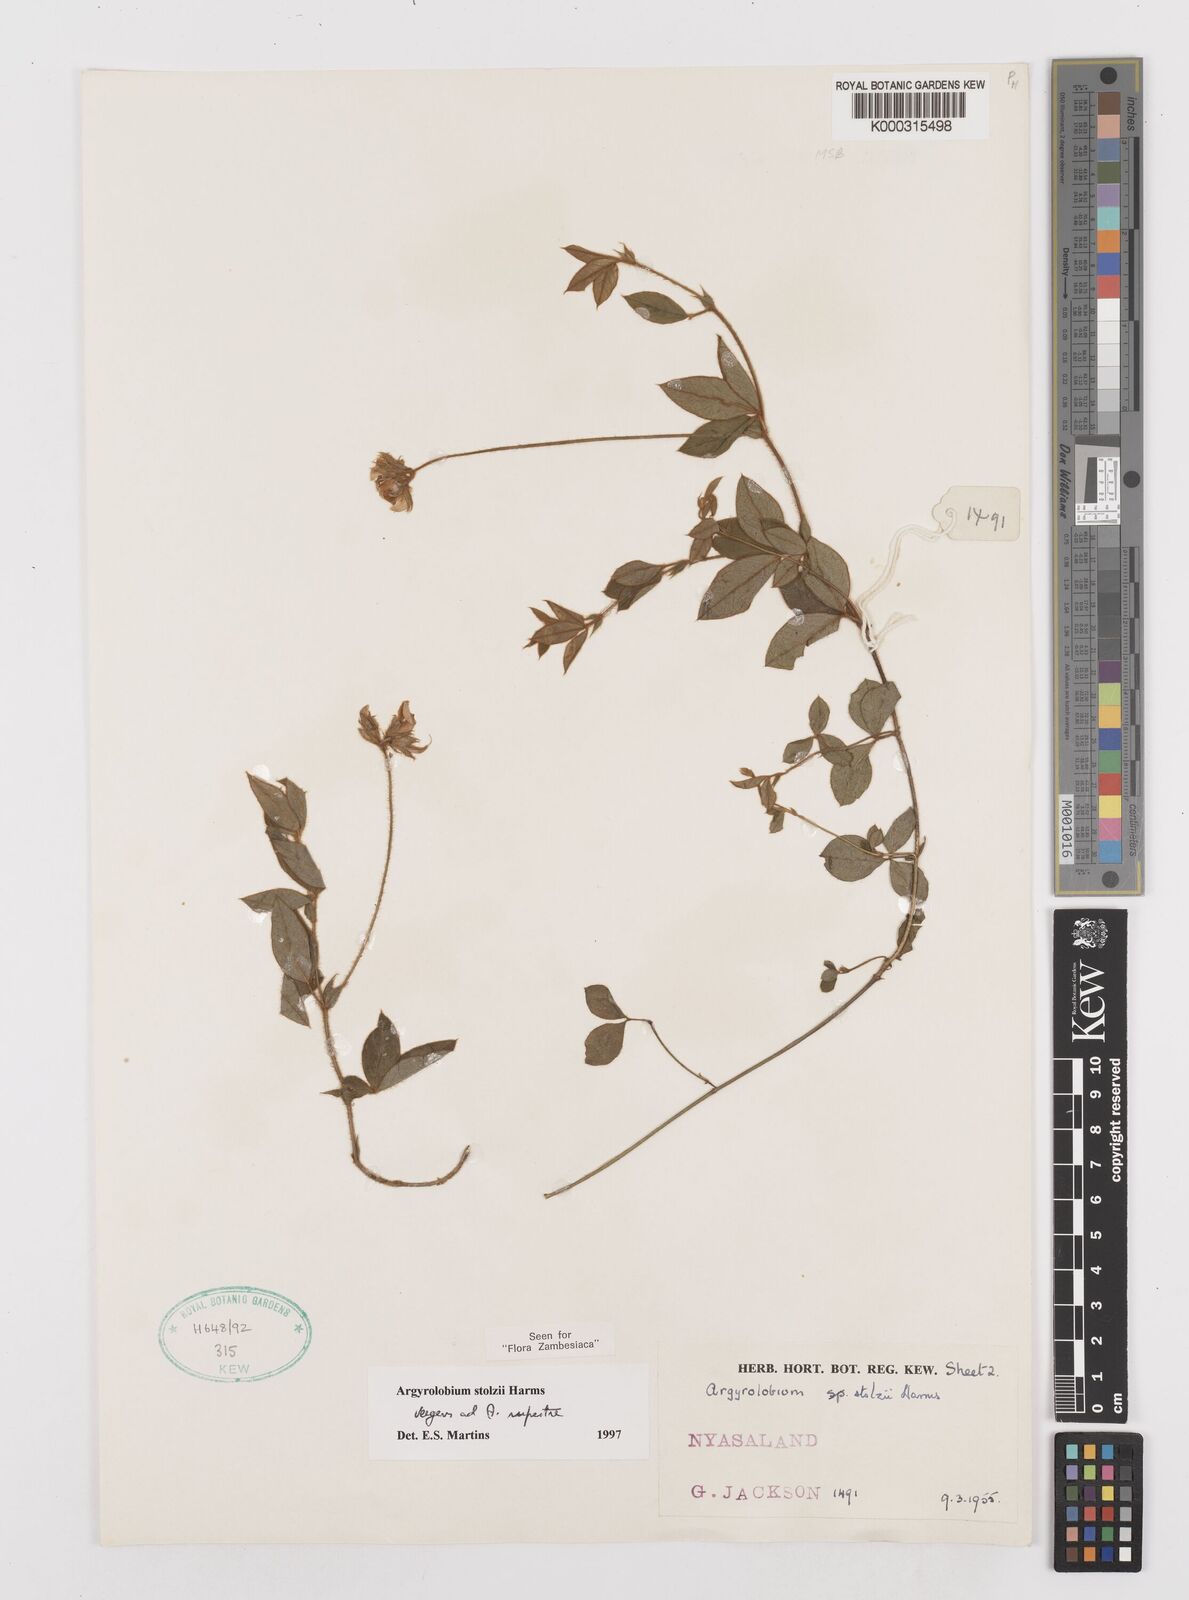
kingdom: Plantae
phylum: Tracheophyta
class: Magnoliopsida
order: Fabales
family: Fabaceae
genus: Argyrolobium
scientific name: Argyrolobium stolzii
